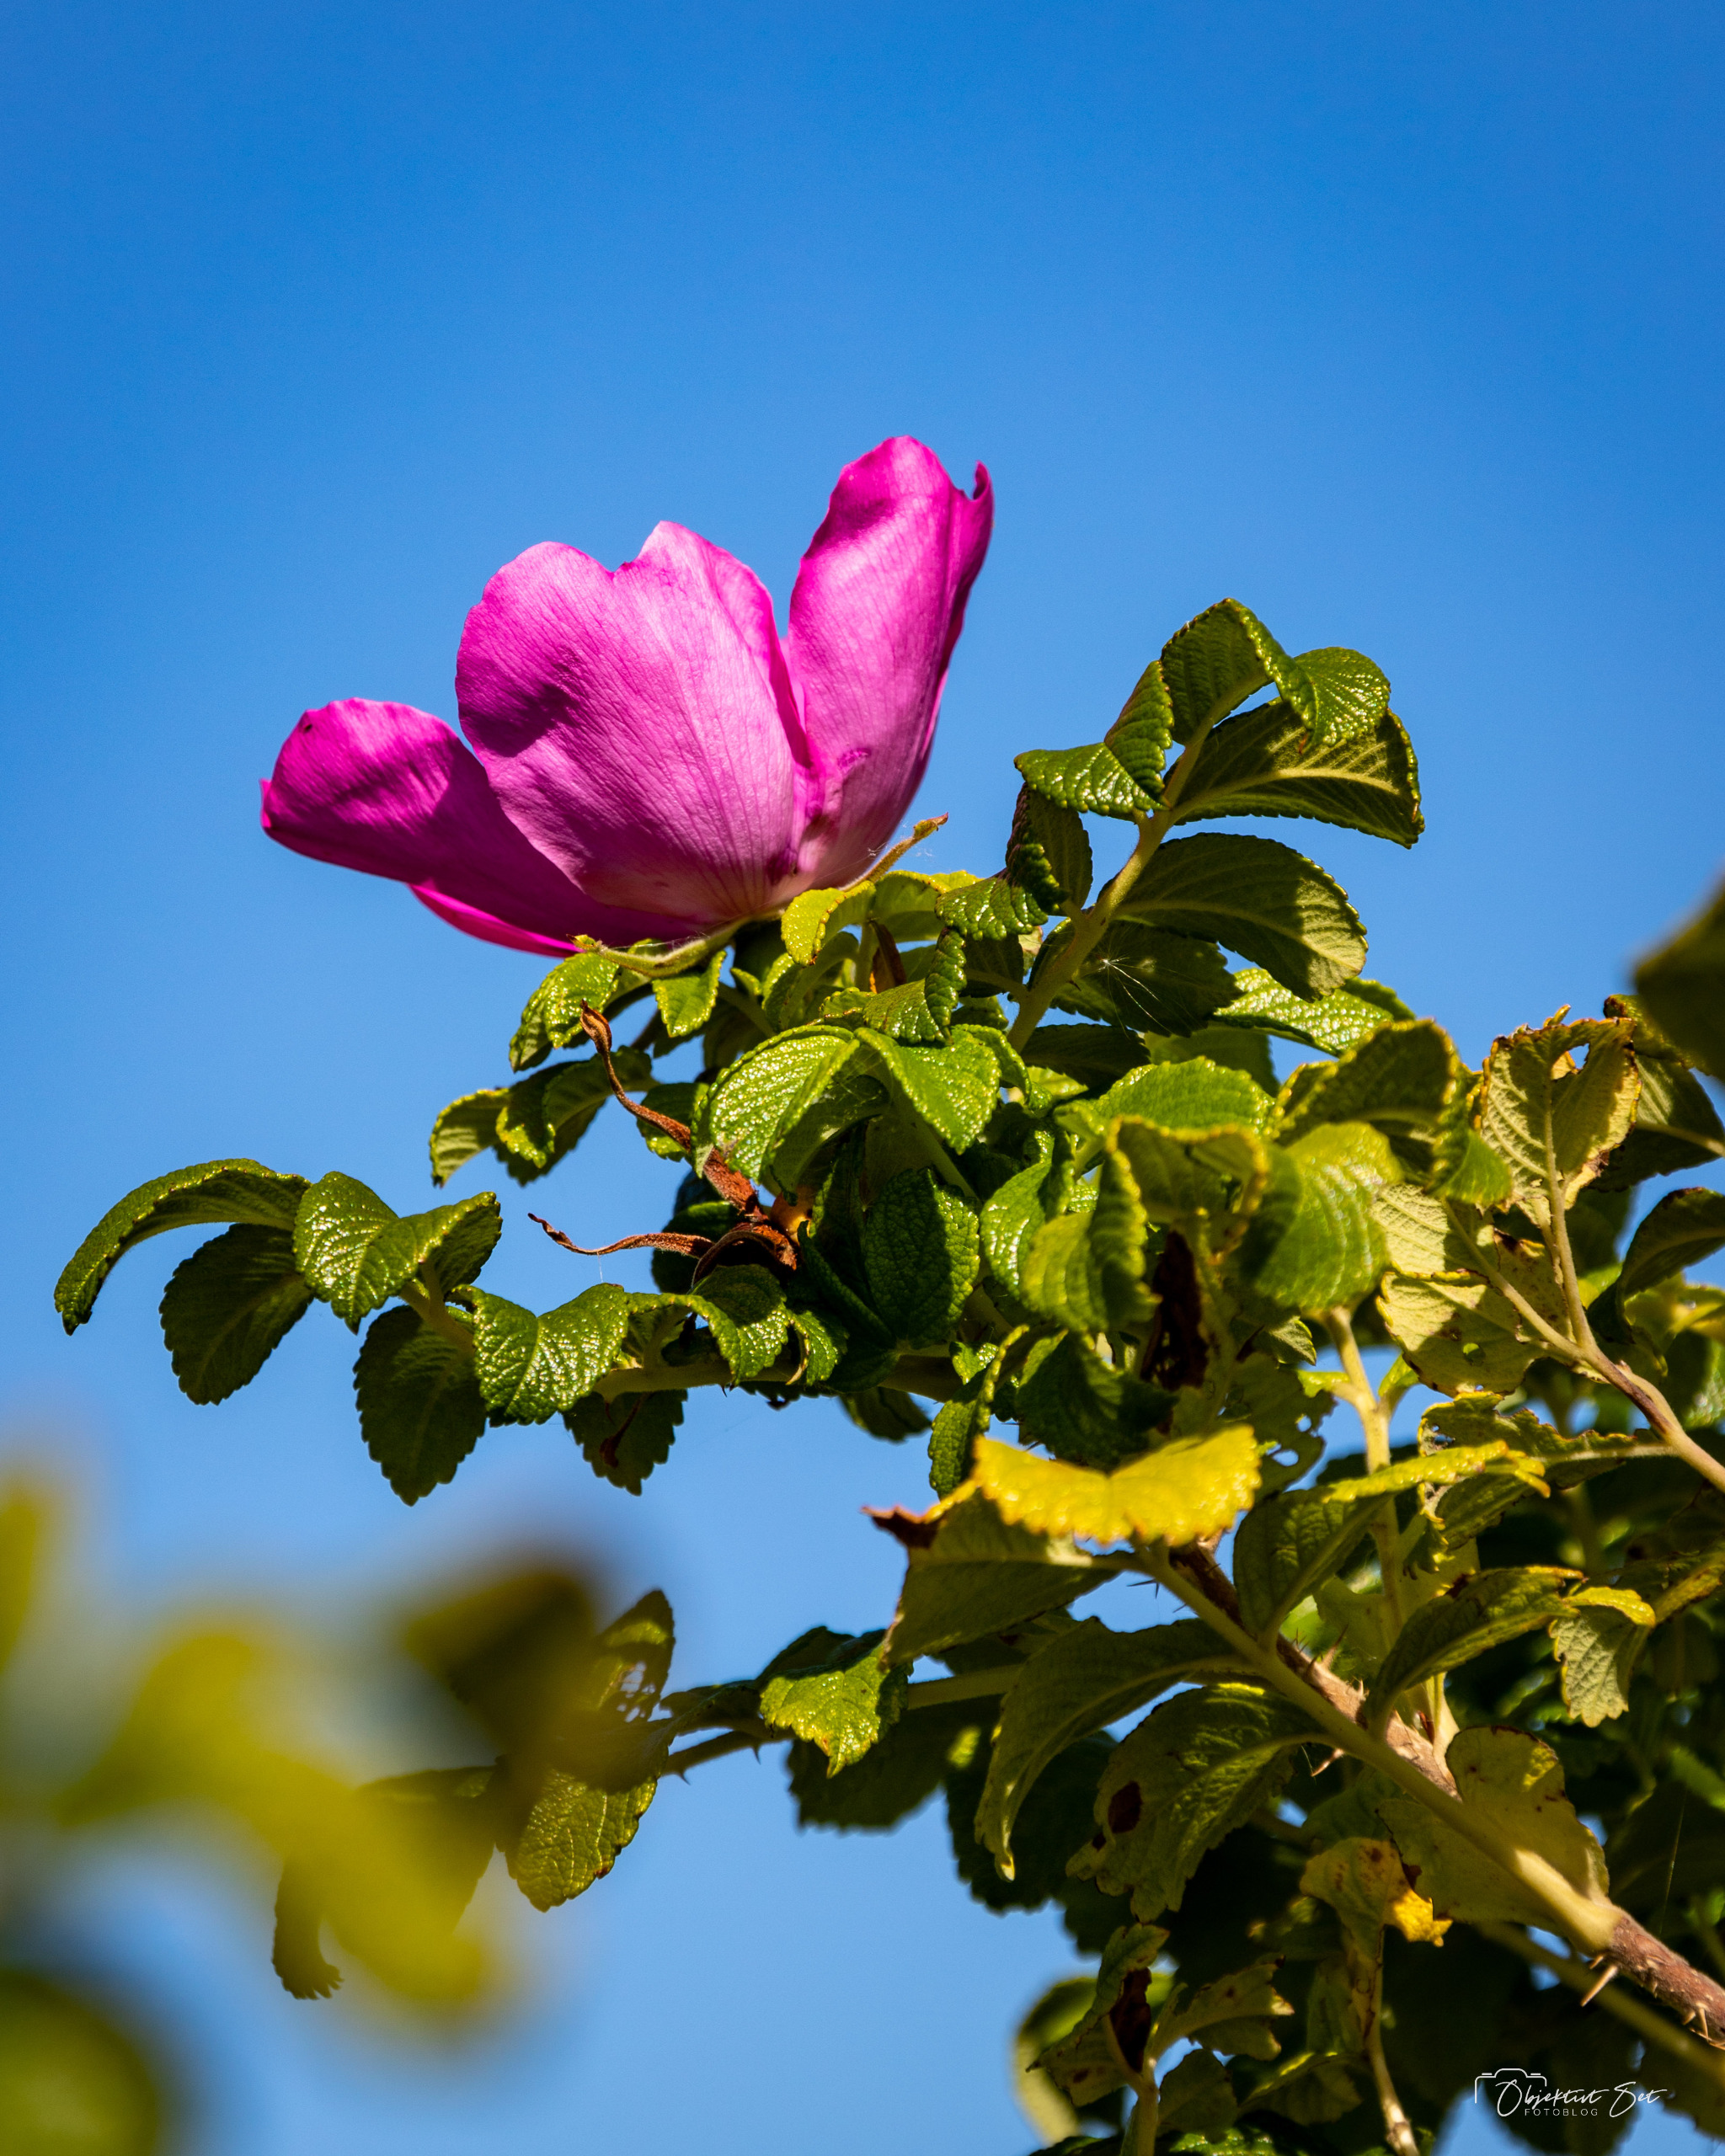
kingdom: Plantae
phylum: Tracheophyta
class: Magnoliopsida
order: Rosales
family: Rosaceae
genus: Rosa
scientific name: Rosa rugosa
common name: Rynket rose
